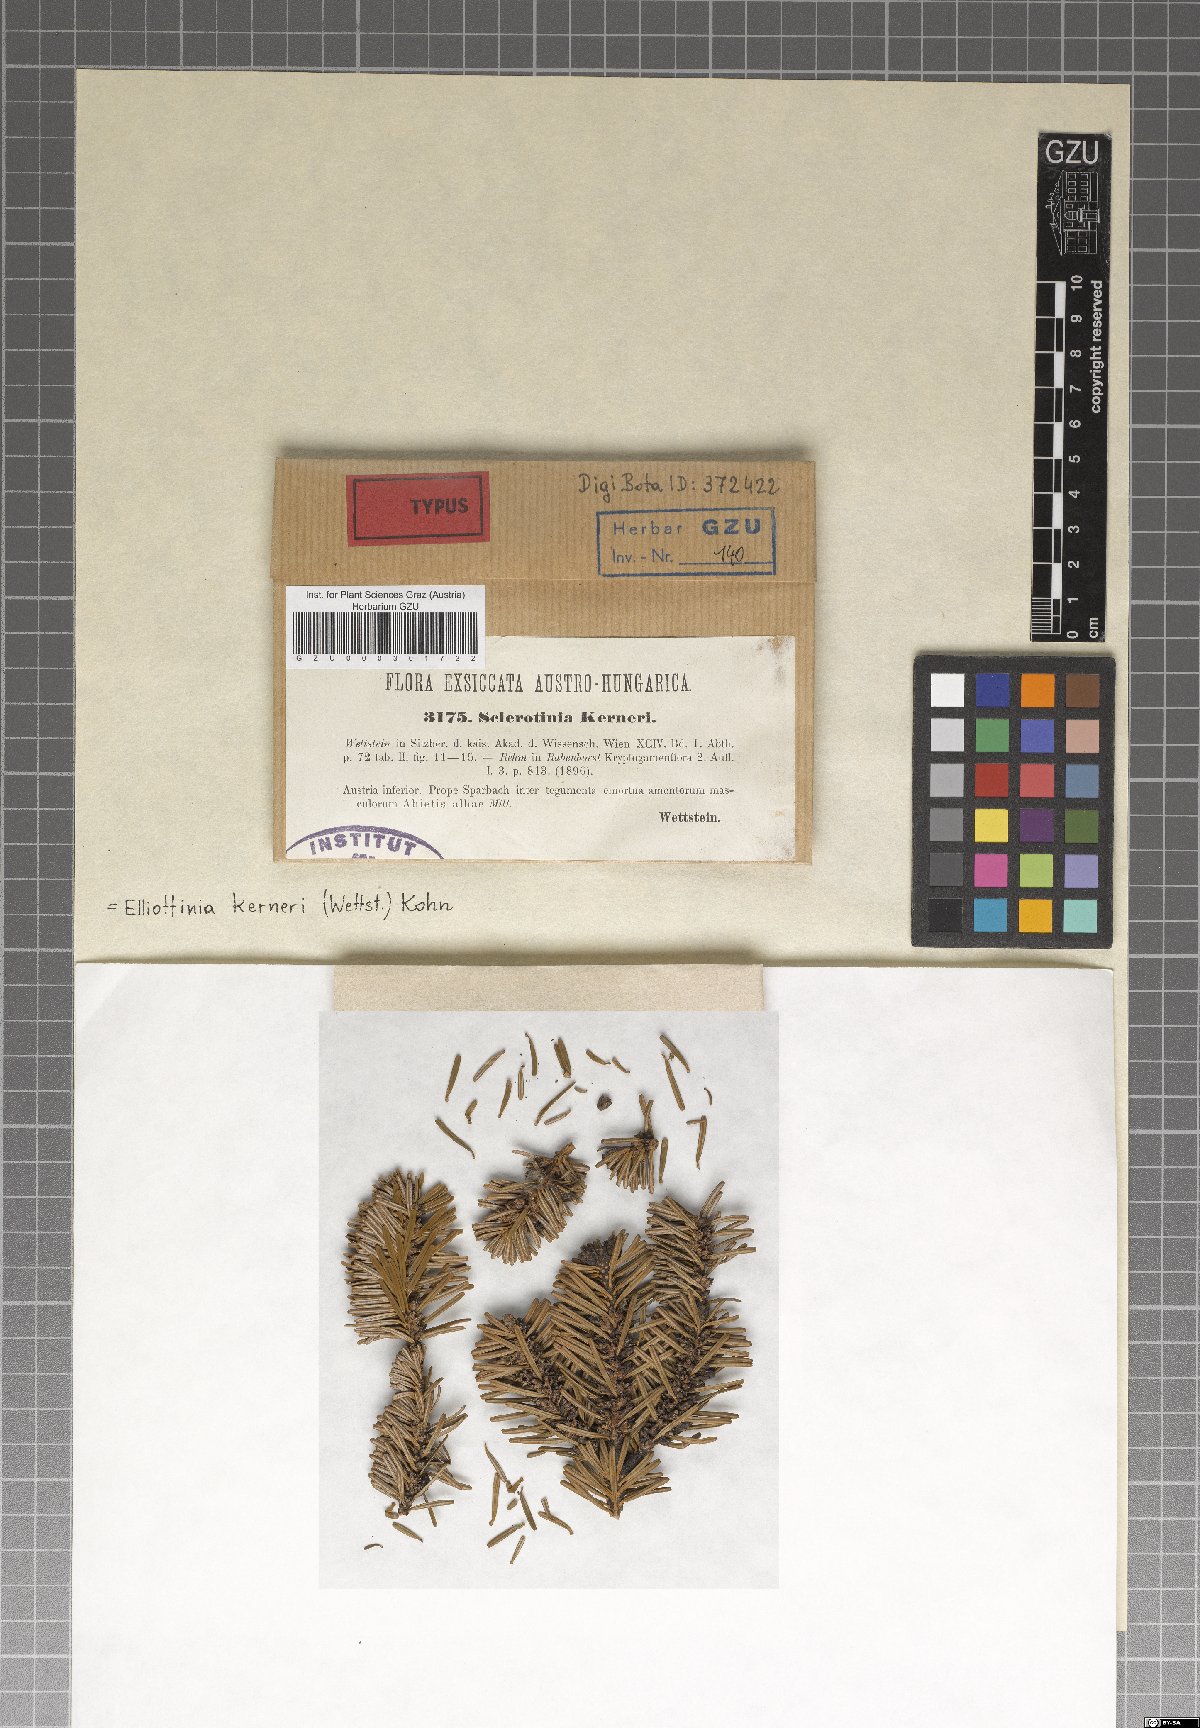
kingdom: Fungi
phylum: Ascomycota
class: Leotiomycetes
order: Helotiales
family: Sclerotiniaceae
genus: Elliottinia
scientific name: Elliottinia kerneri
